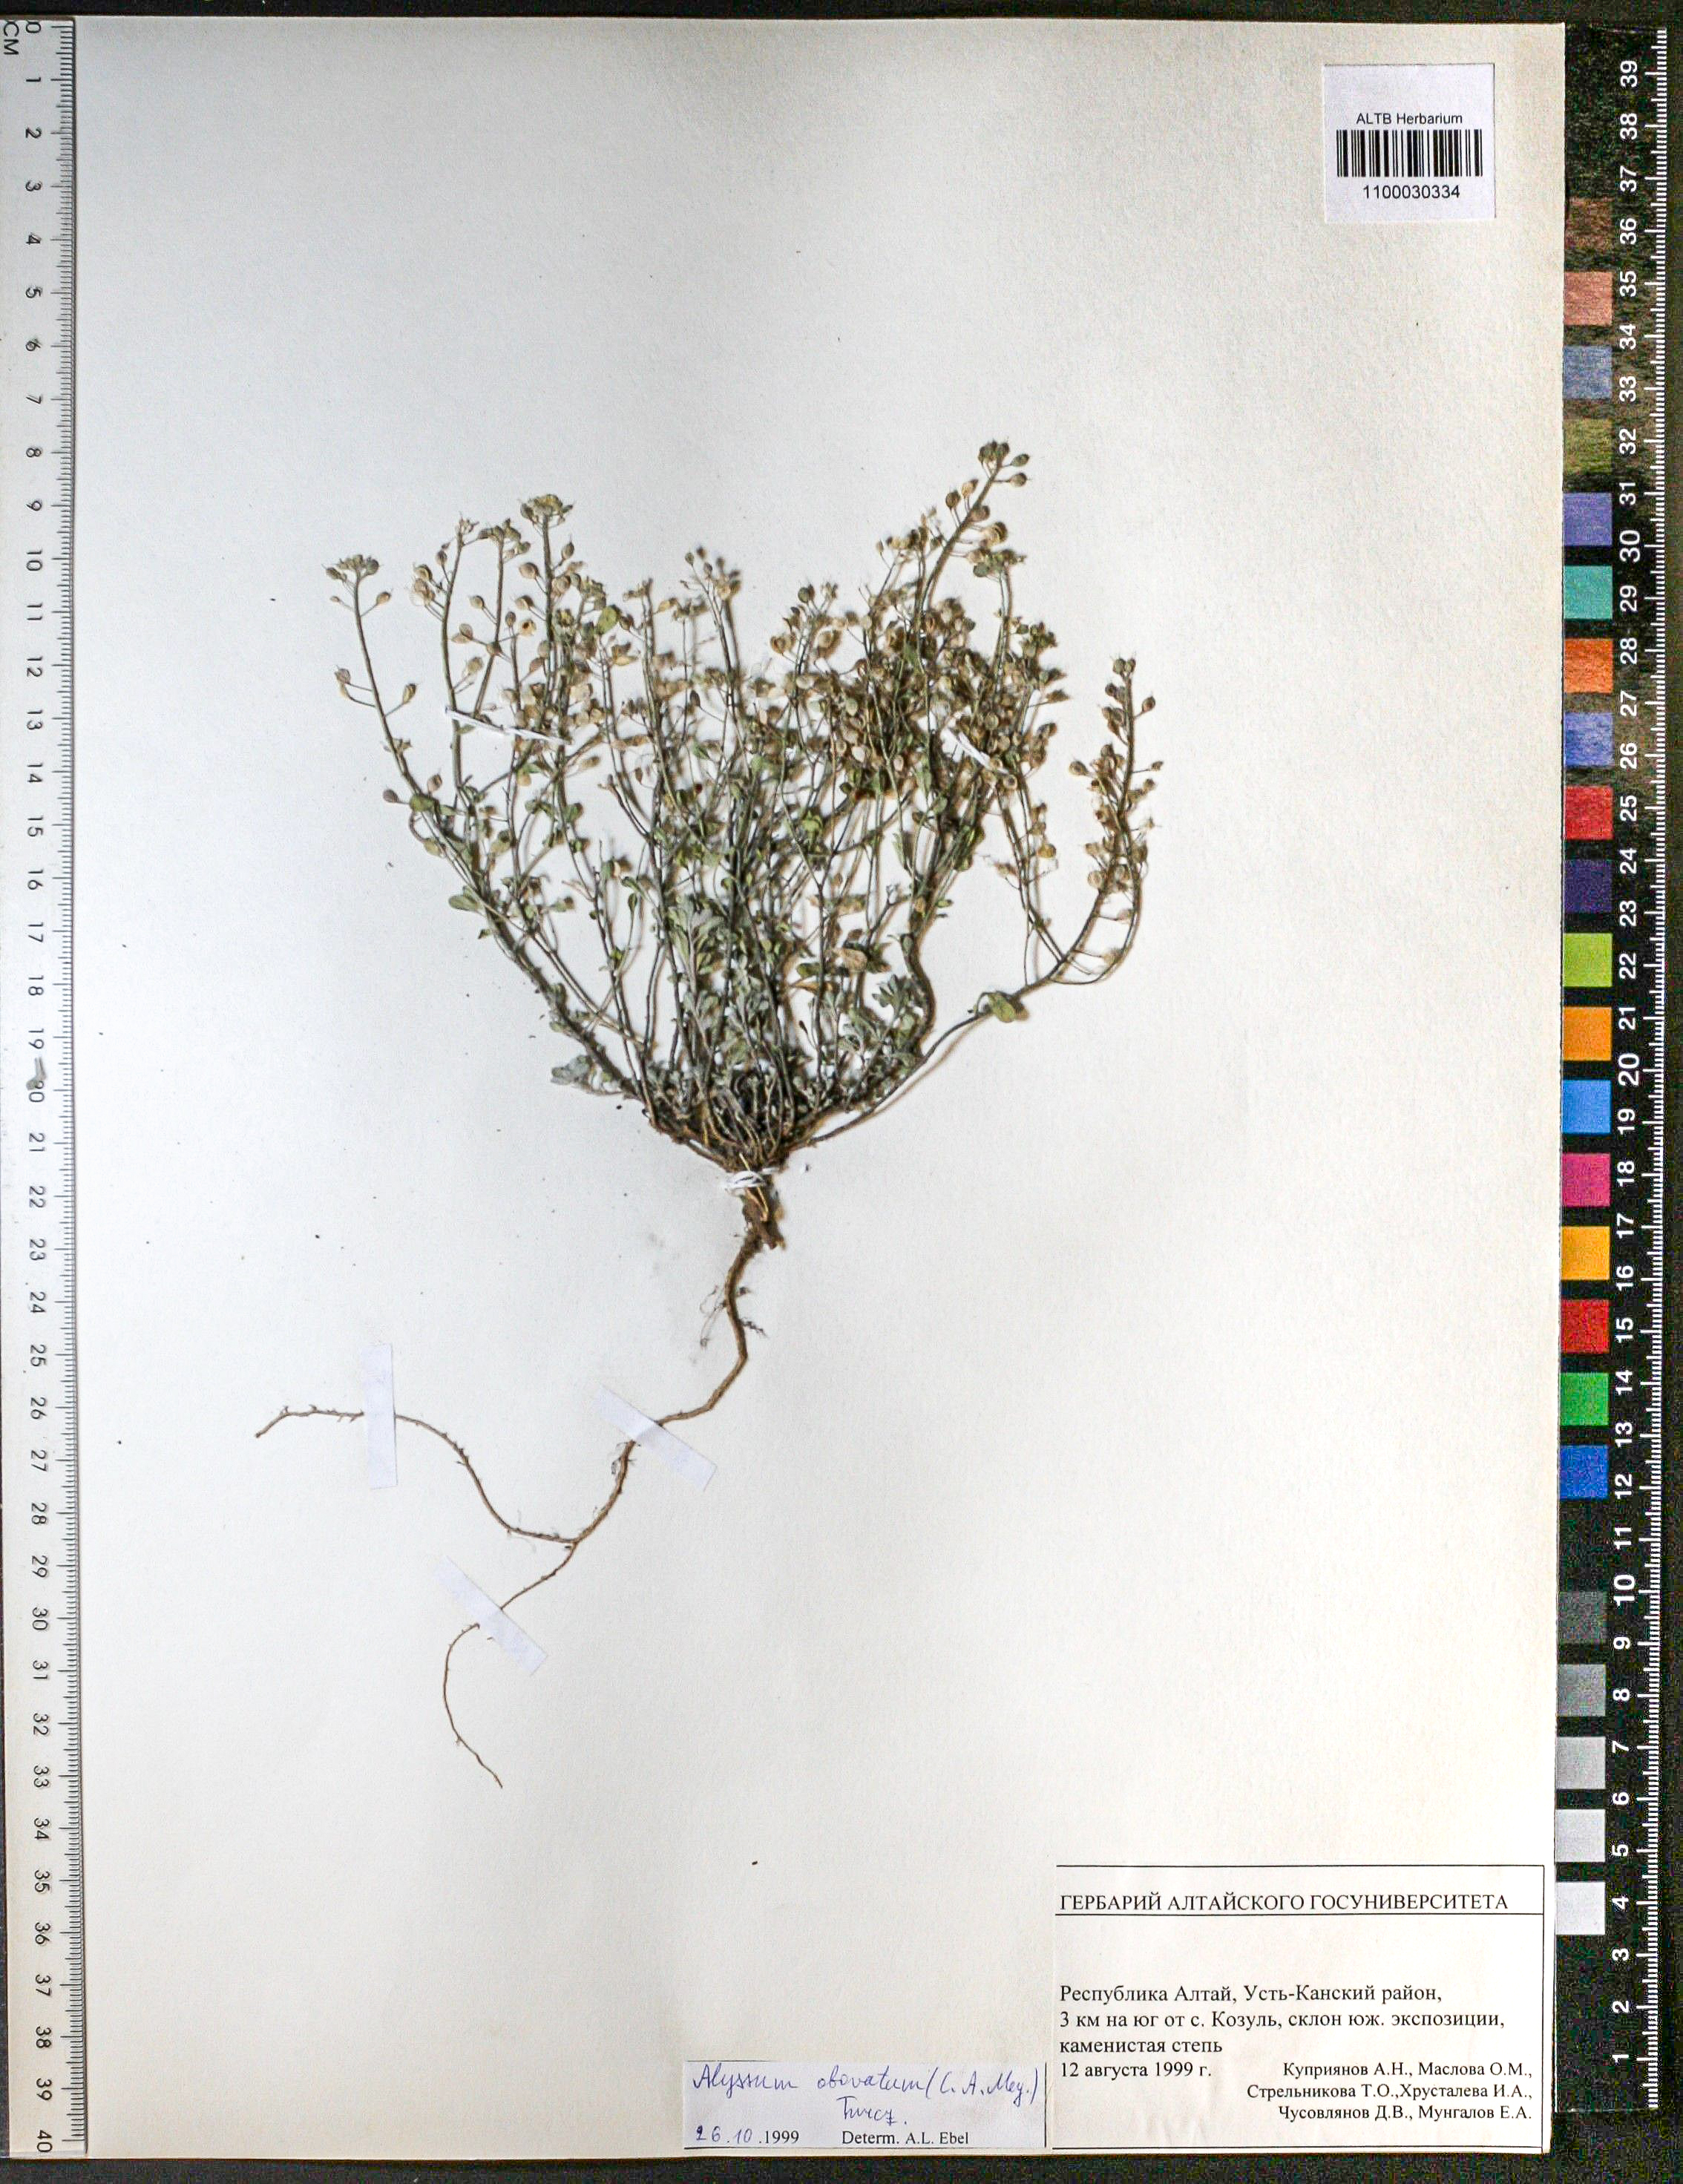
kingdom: Plantae
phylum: Tracheophyta
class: Magnoliopsida
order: Brassicales
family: Brassicaceae
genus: Odontarrhena
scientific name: Odontarrhena obovata
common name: American alyssum
